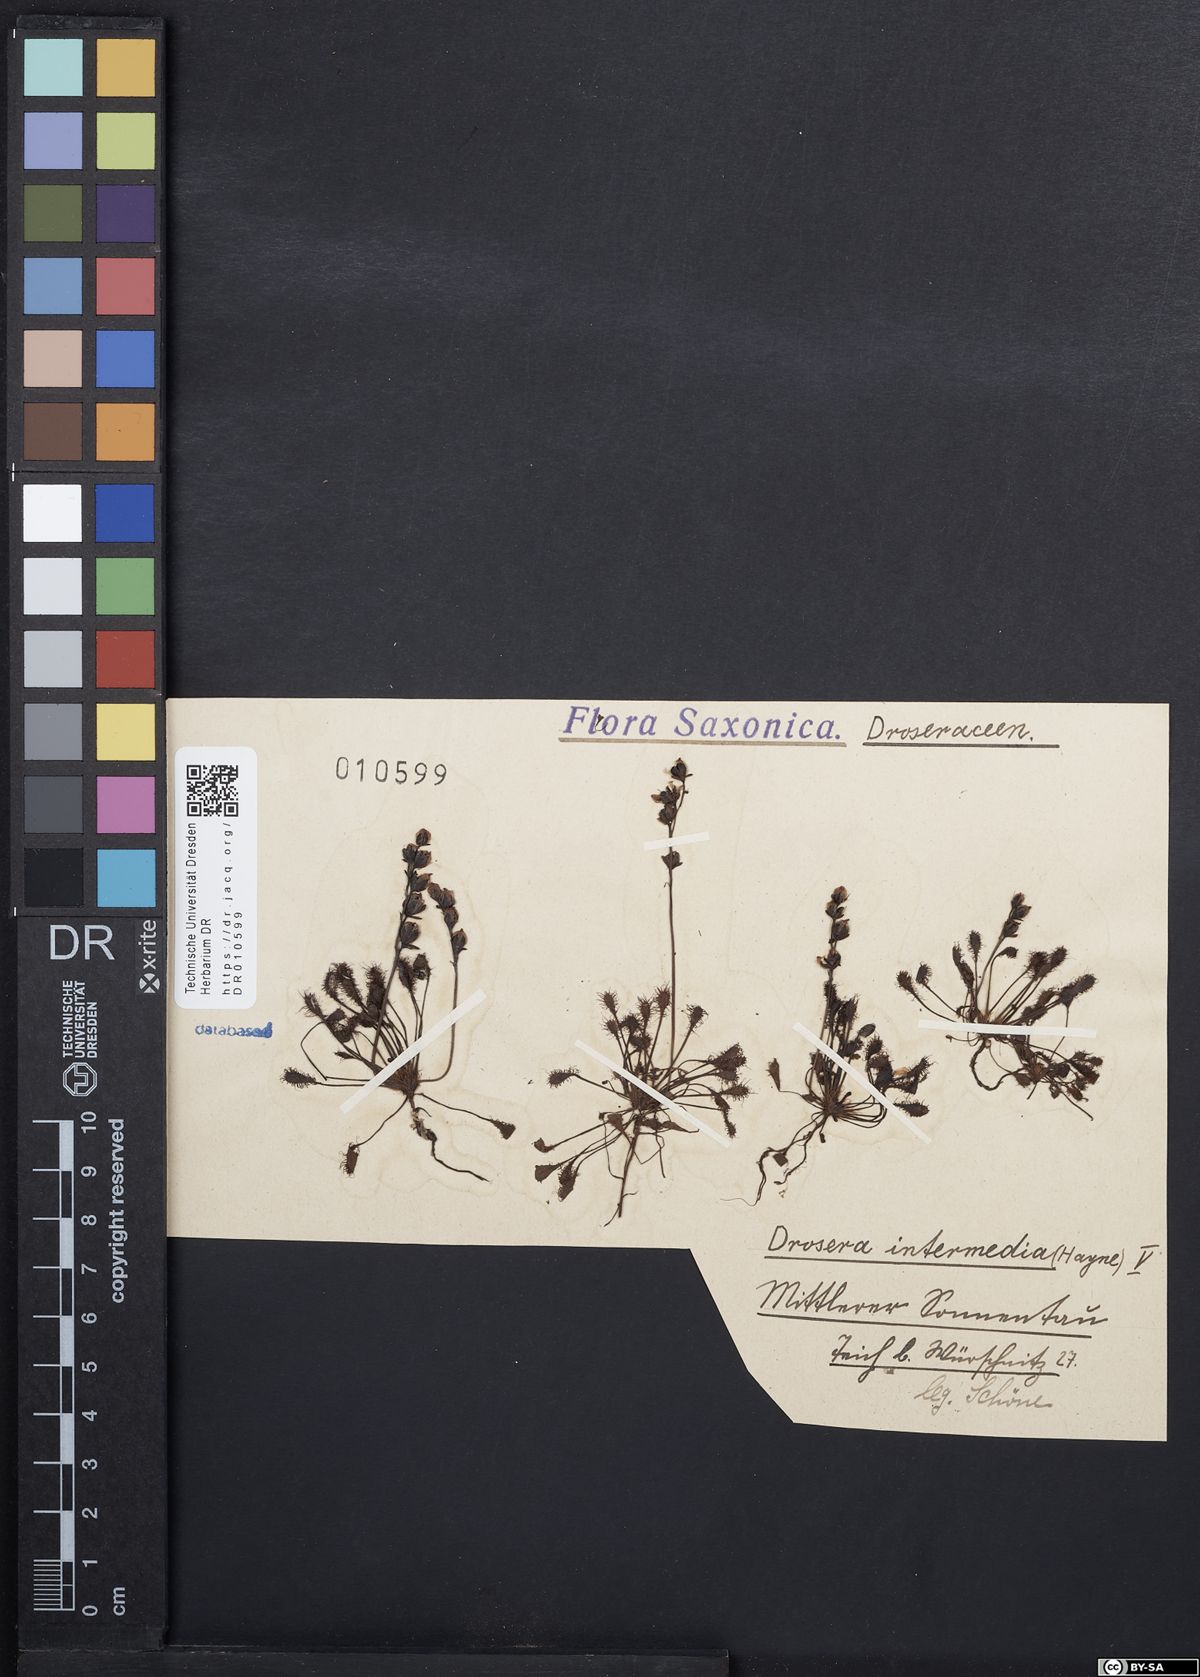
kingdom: Plantae
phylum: Tracheophyta
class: Magnoliopsida
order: Caryophyllales
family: Droseraceae
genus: Drosera
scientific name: Drosera intermedia
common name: Oblong-leaved sundew
